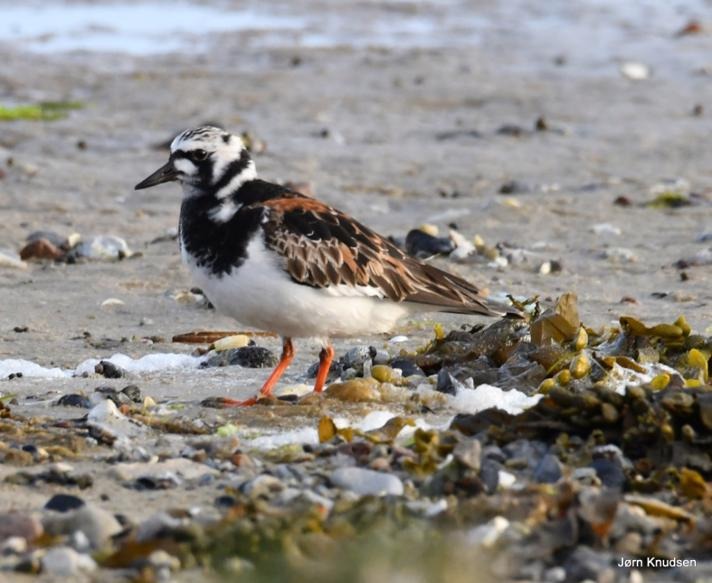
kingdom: Animalia
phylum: Chordata
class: Aves
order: Charadriiformes
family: Scolopacidae
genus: Arenaria
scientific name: Arenaria interpres
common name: Stenvender
